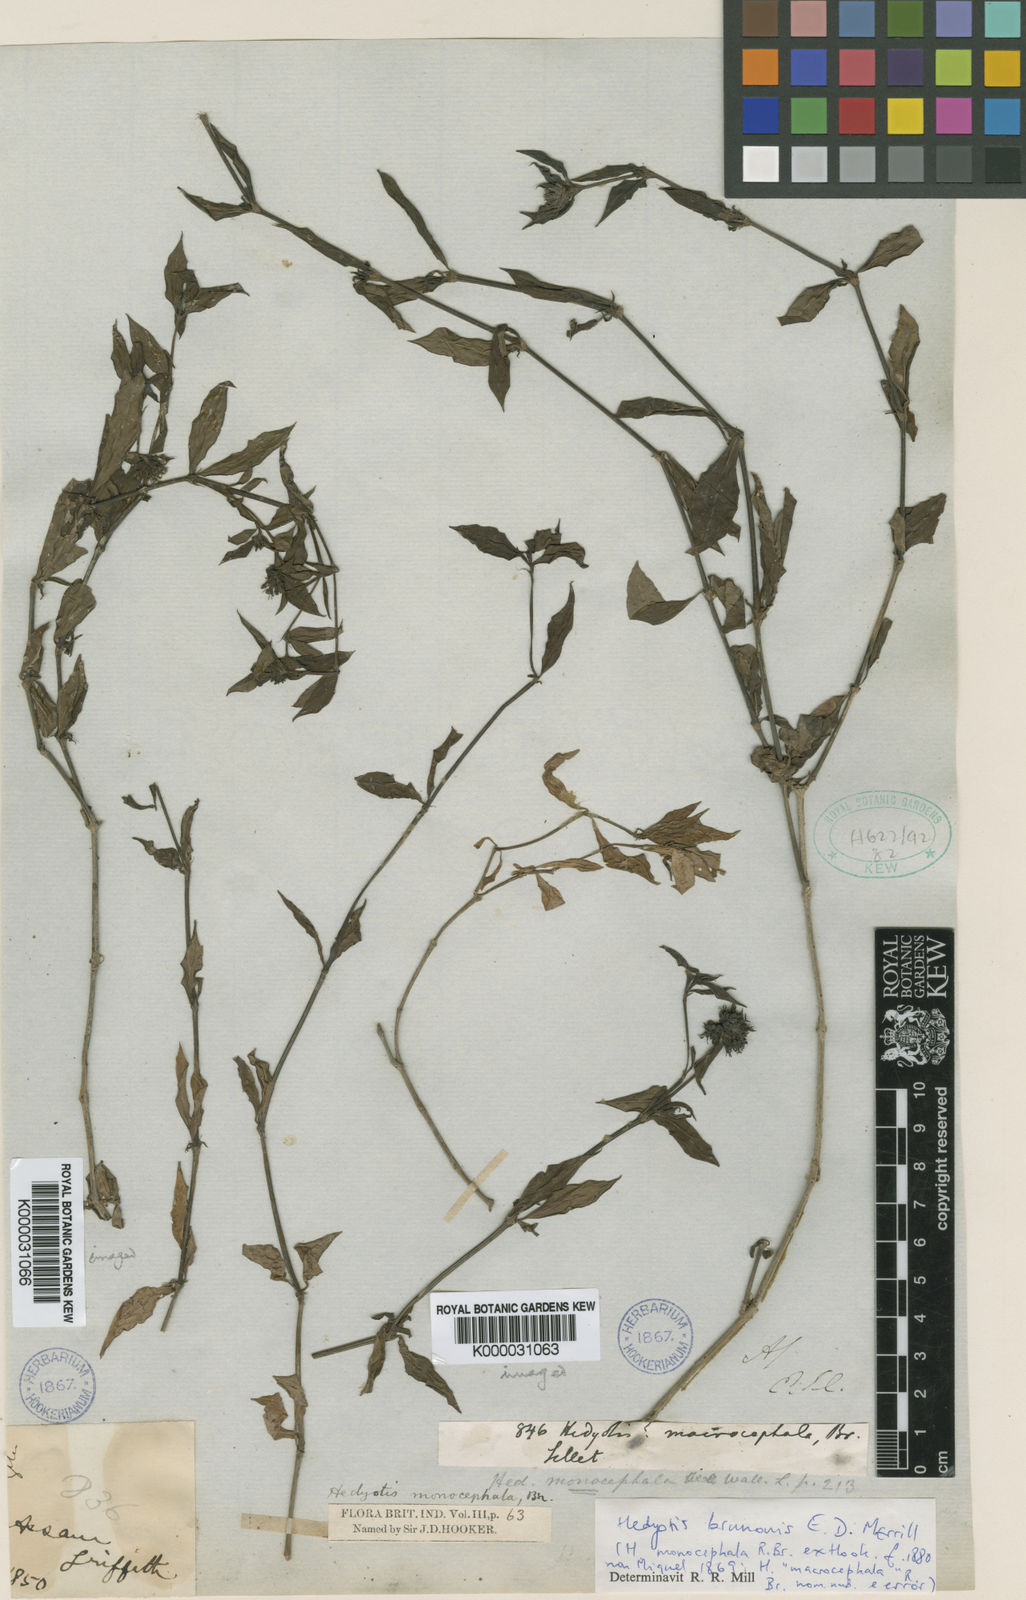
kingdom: Plantae
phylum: Tracheophyta
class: Magnoliopsida
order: Gentianales
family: Rubiaceae
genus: Oldenlandia
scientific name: Oldenlandia monocephala
